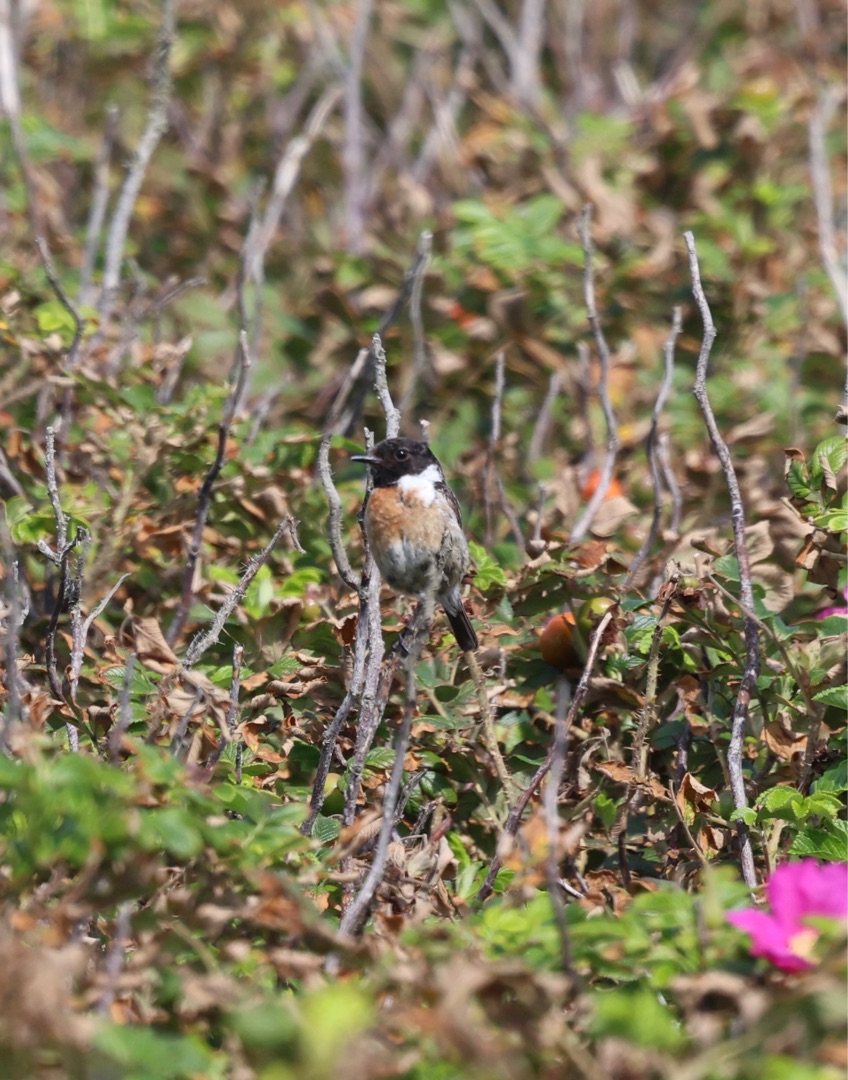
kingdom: Animalia
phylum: Chordata
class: Aves
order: Passeriformes
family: Muscicapidae
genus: Saxicola
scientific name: Saxicola rubicola
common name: Sortstrubet bynkefugl
